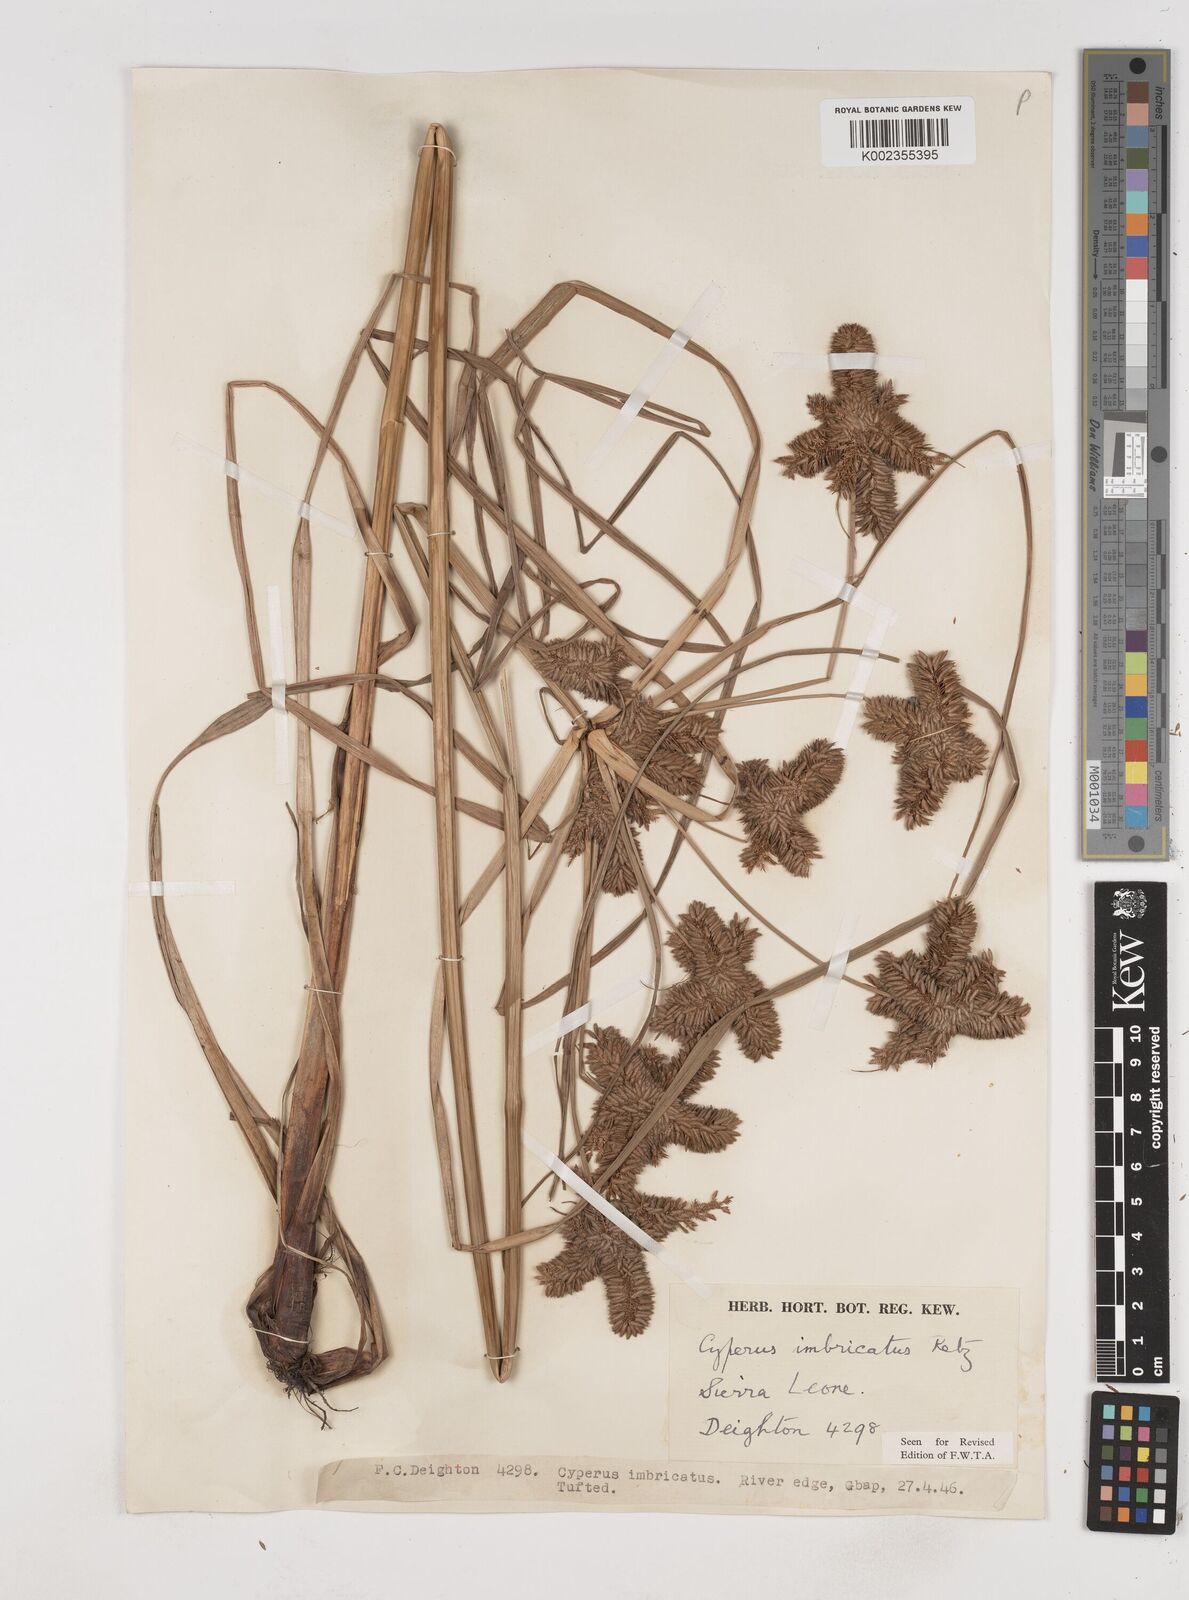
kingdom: Plantae
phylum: Tracheophyta
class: Liliopsida
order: Poales
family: Cyperaceae
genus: Cyperus
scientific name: Cyperus imbricatus
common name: Shingle flatsedge
